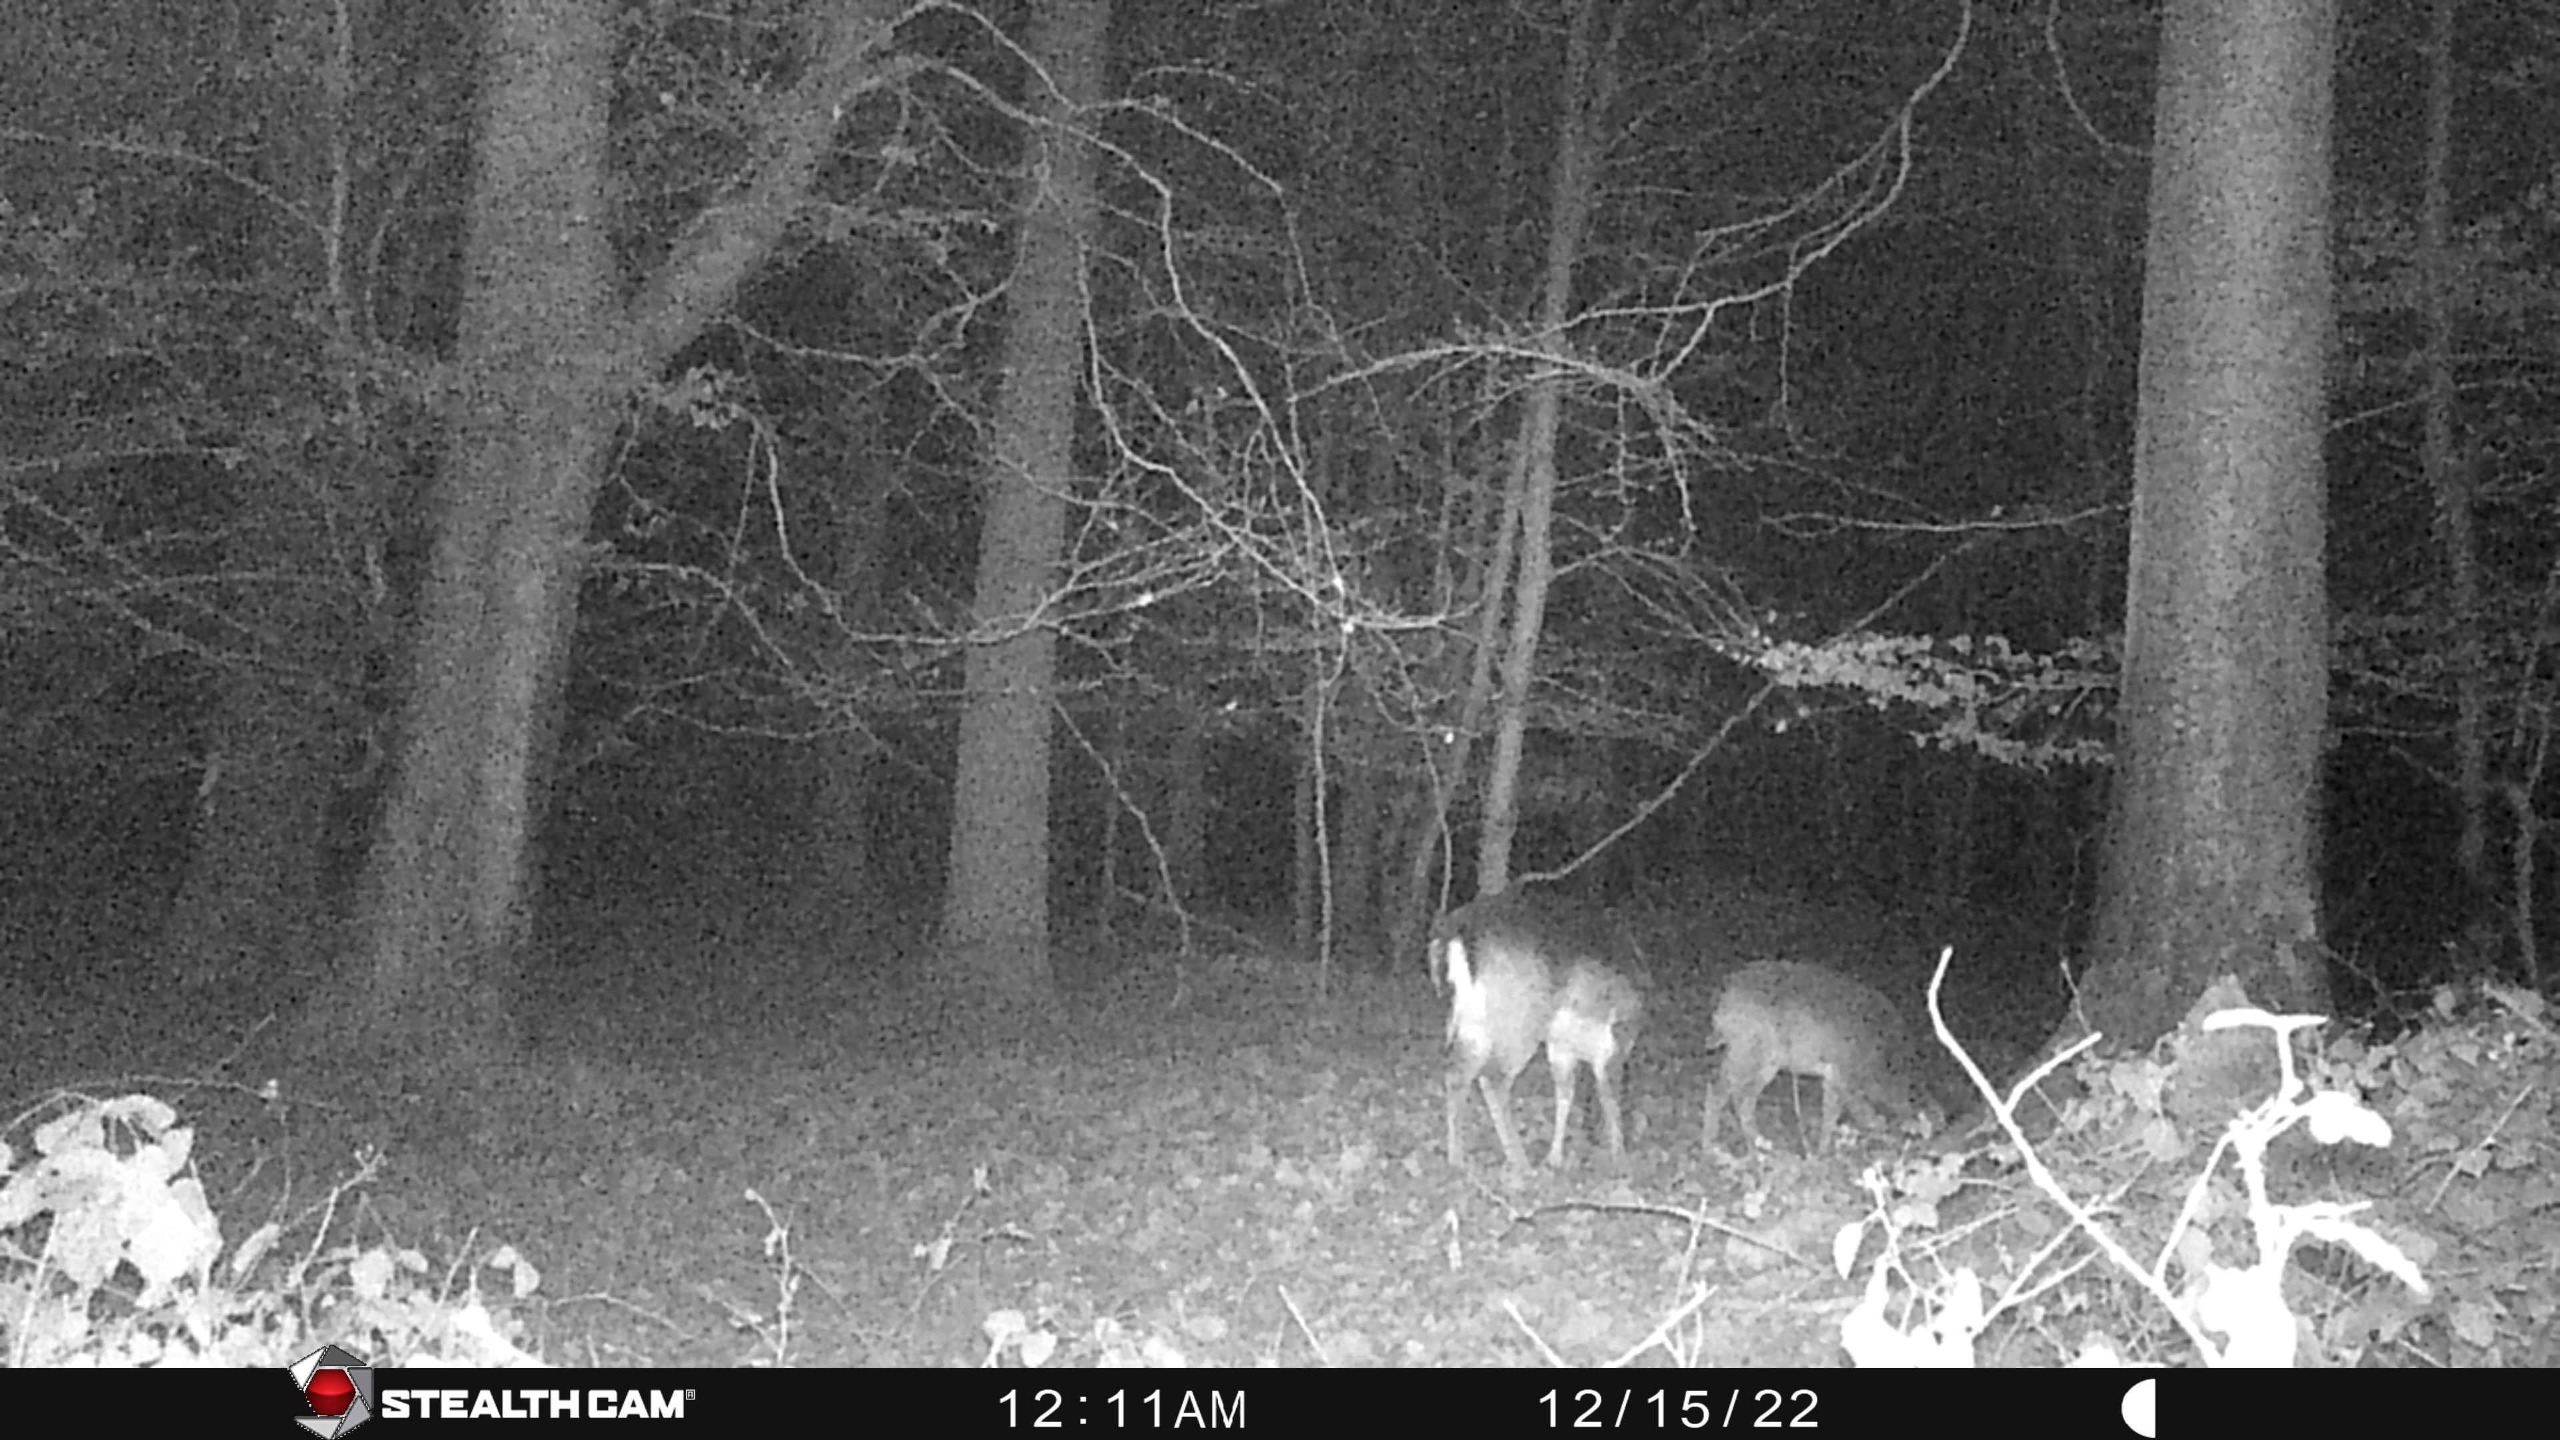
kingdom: Animalia
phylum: Chordata
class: Mammalia
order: Artiodactyla
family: Cervidae
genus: Dama
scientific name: Dama dama
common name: Dådyr
